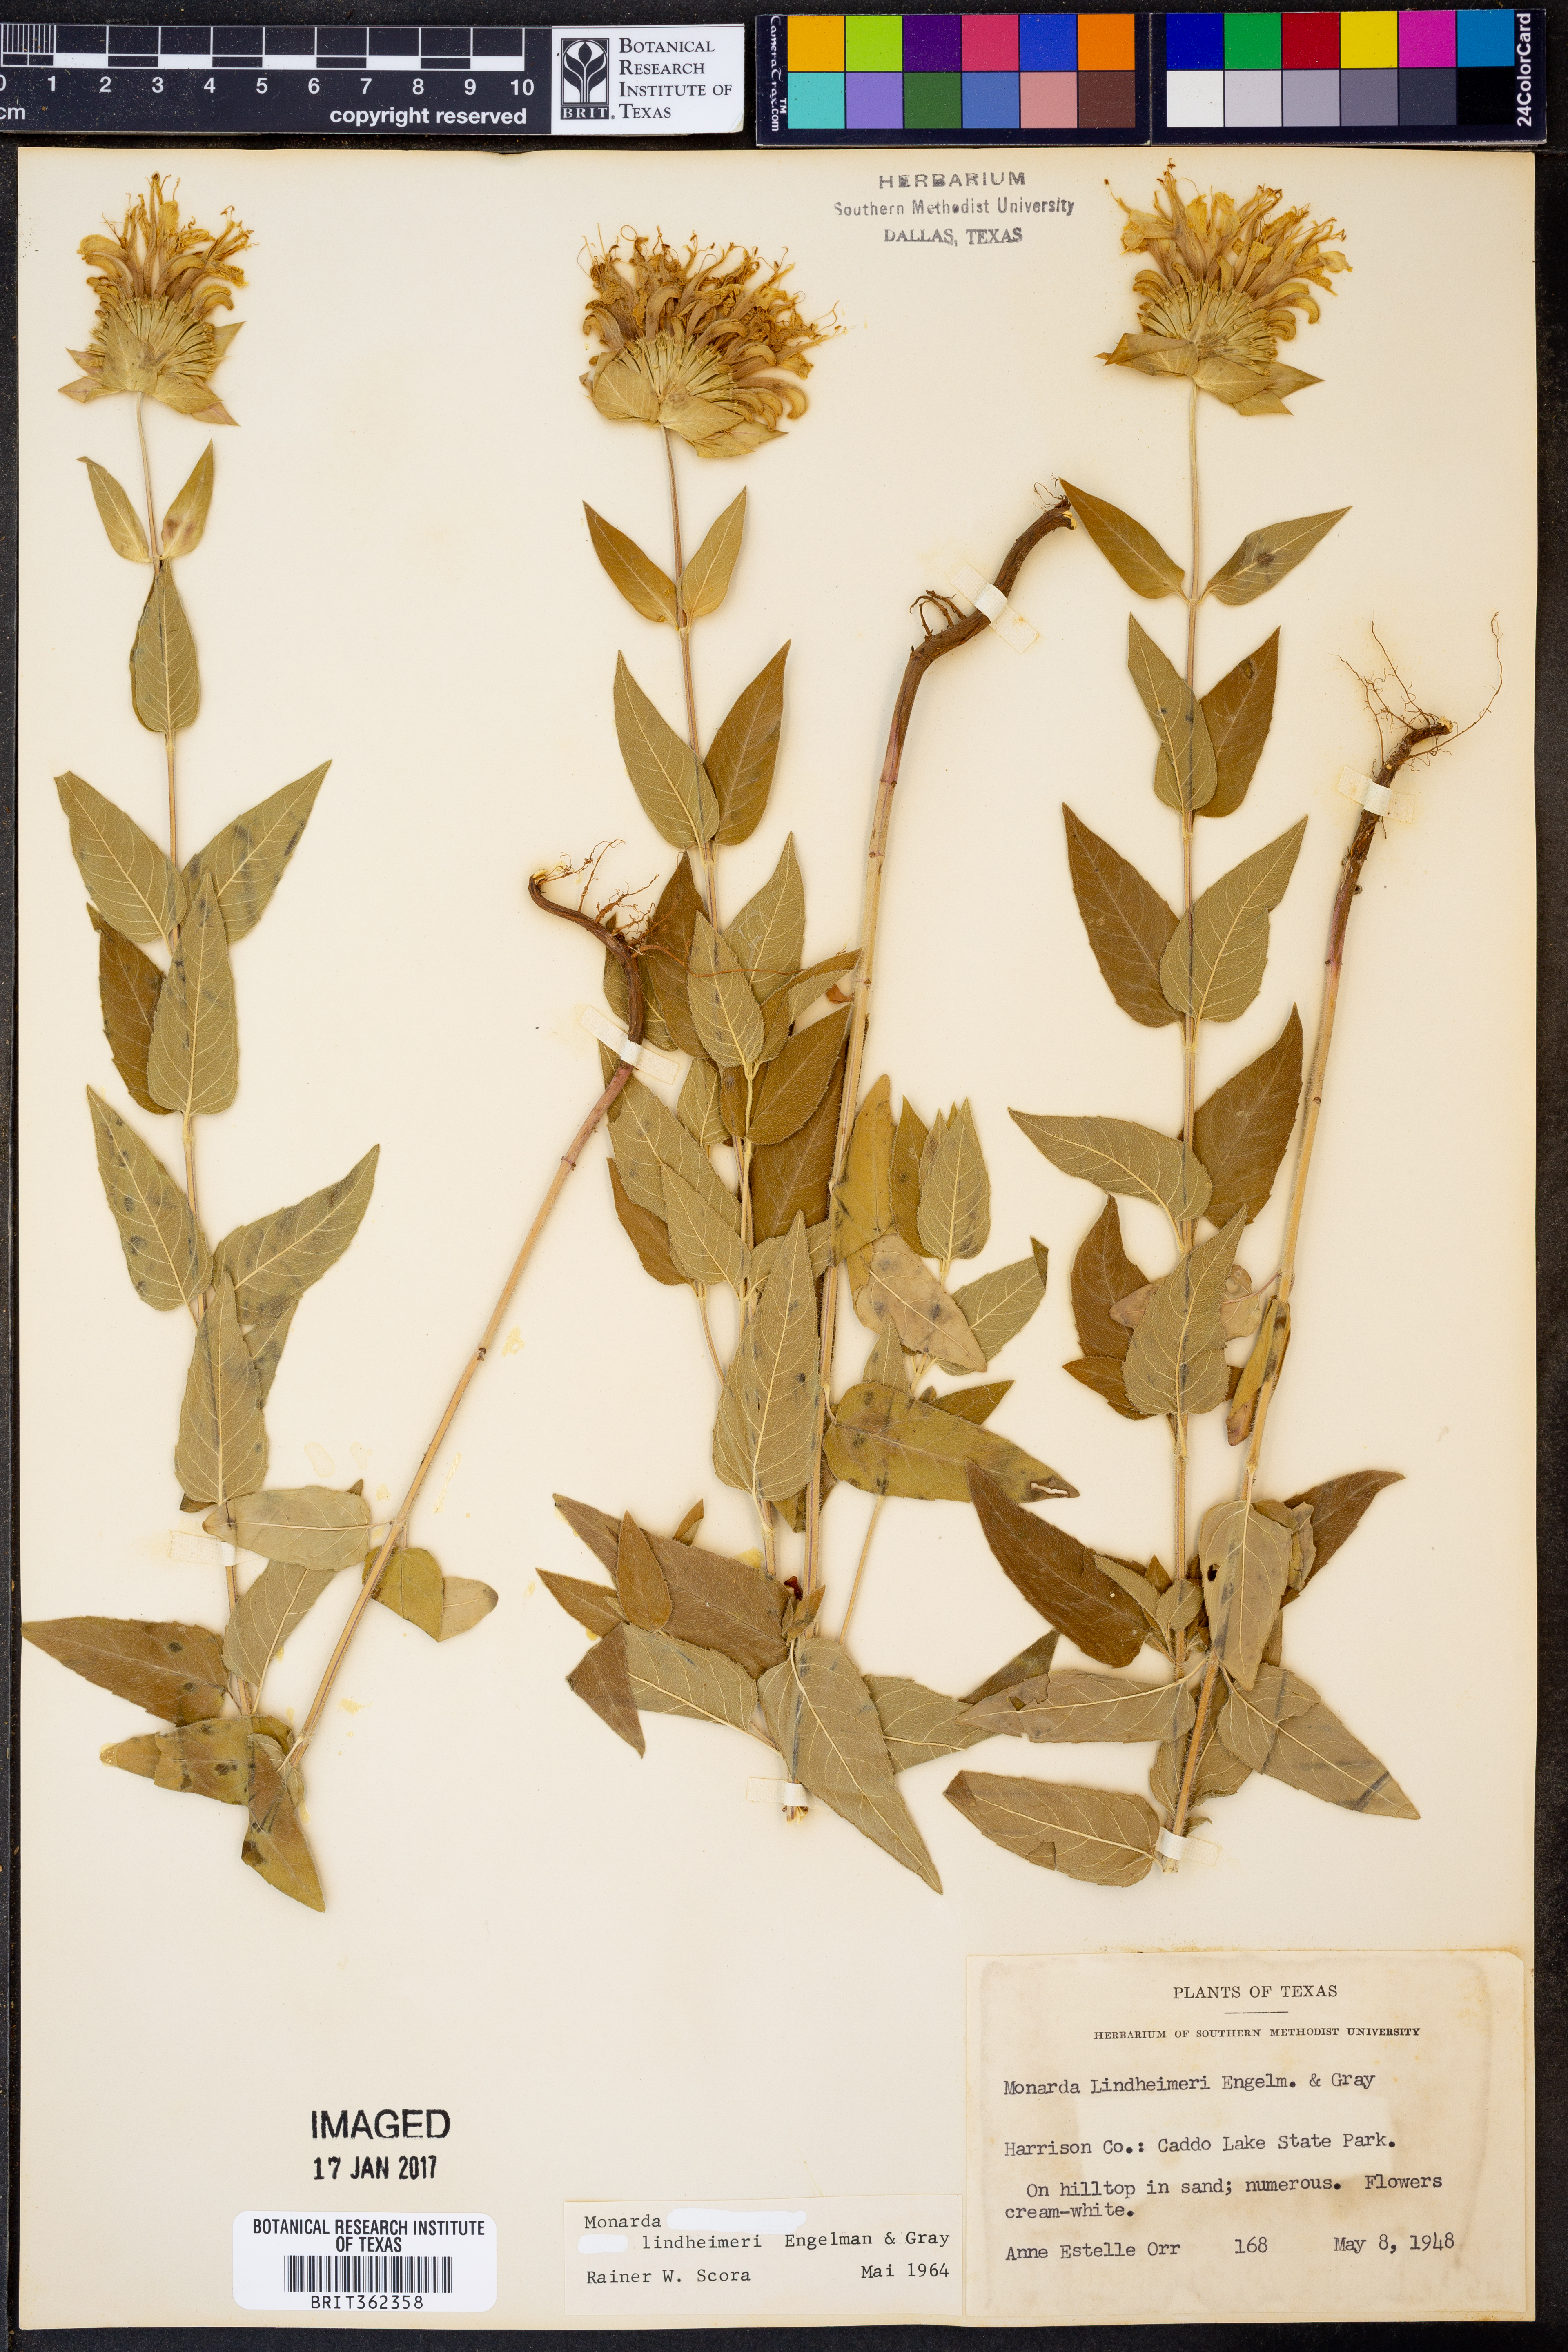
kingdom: Plantae
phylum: Tracheophyta
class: Magnoliopsida
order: Lamiales
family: Lamiaceae
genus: Monarda
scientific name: Monarda lindheimeri
